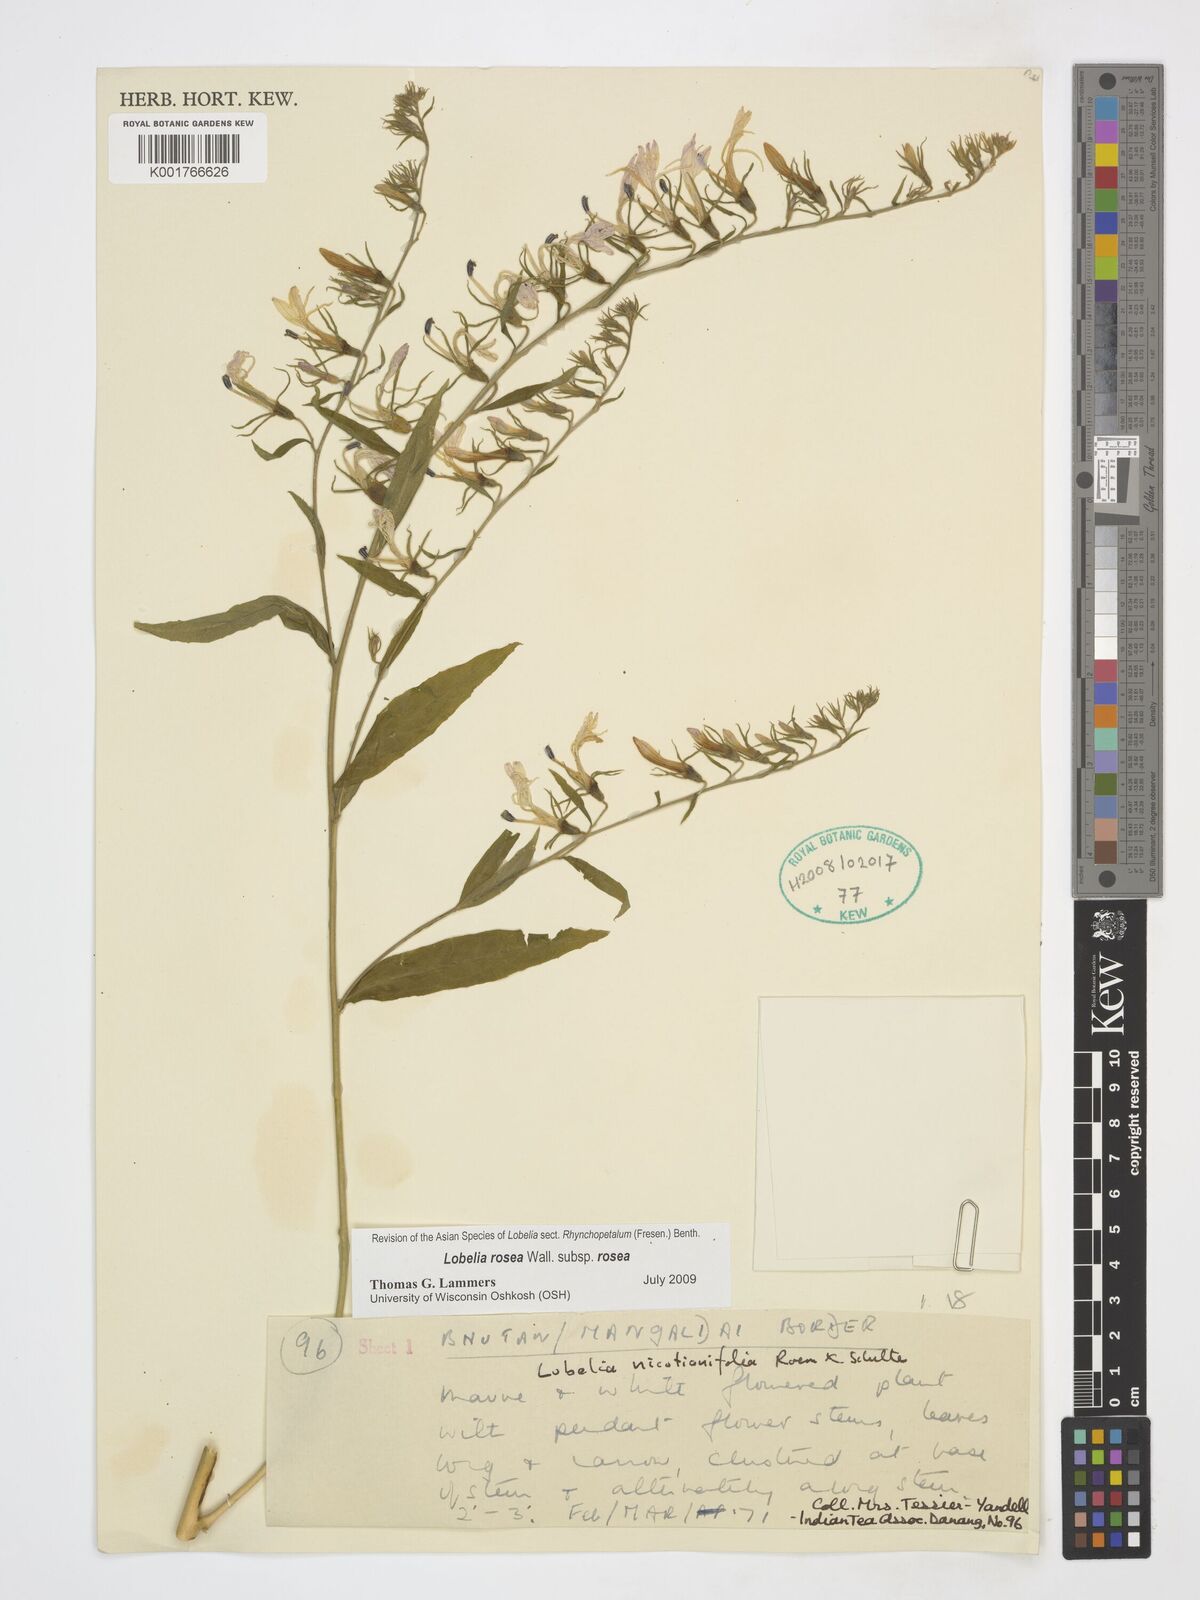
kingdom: Plantae
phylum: Tracheophyta
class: Magnoliopsida
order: Asterales
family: Campanulaceae
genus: Lobelia
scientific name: Lobelia rosea
